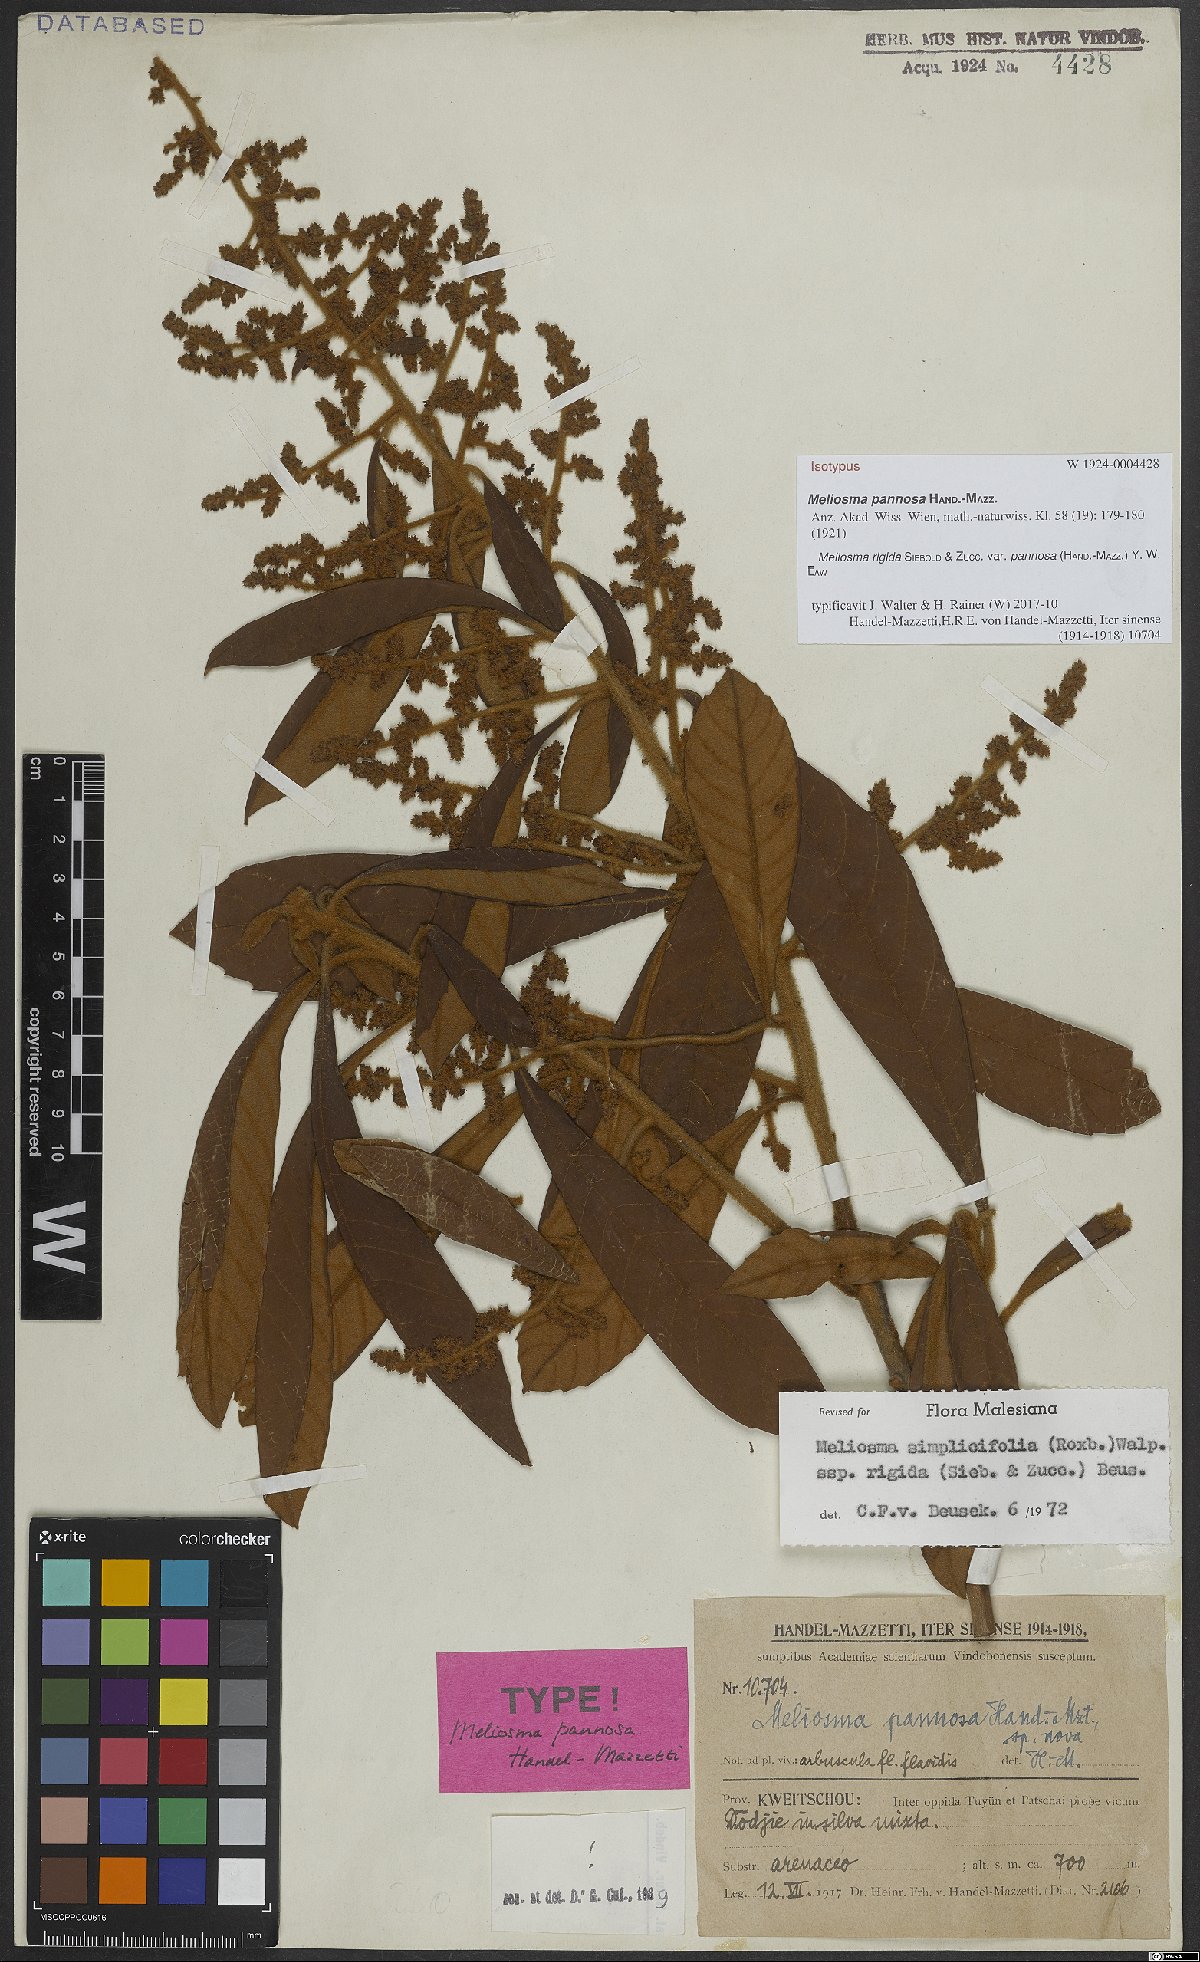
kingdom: Plantae
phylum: Tracheophyta
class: Magnoliopsida
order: Proteales
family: Sabiaceae
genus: Meliosma
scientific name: Meliosma rigida
